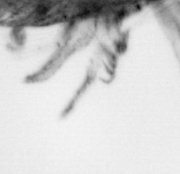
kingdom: Animalia
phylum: Arthropoda
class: Copepoda
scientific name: Copepoda
